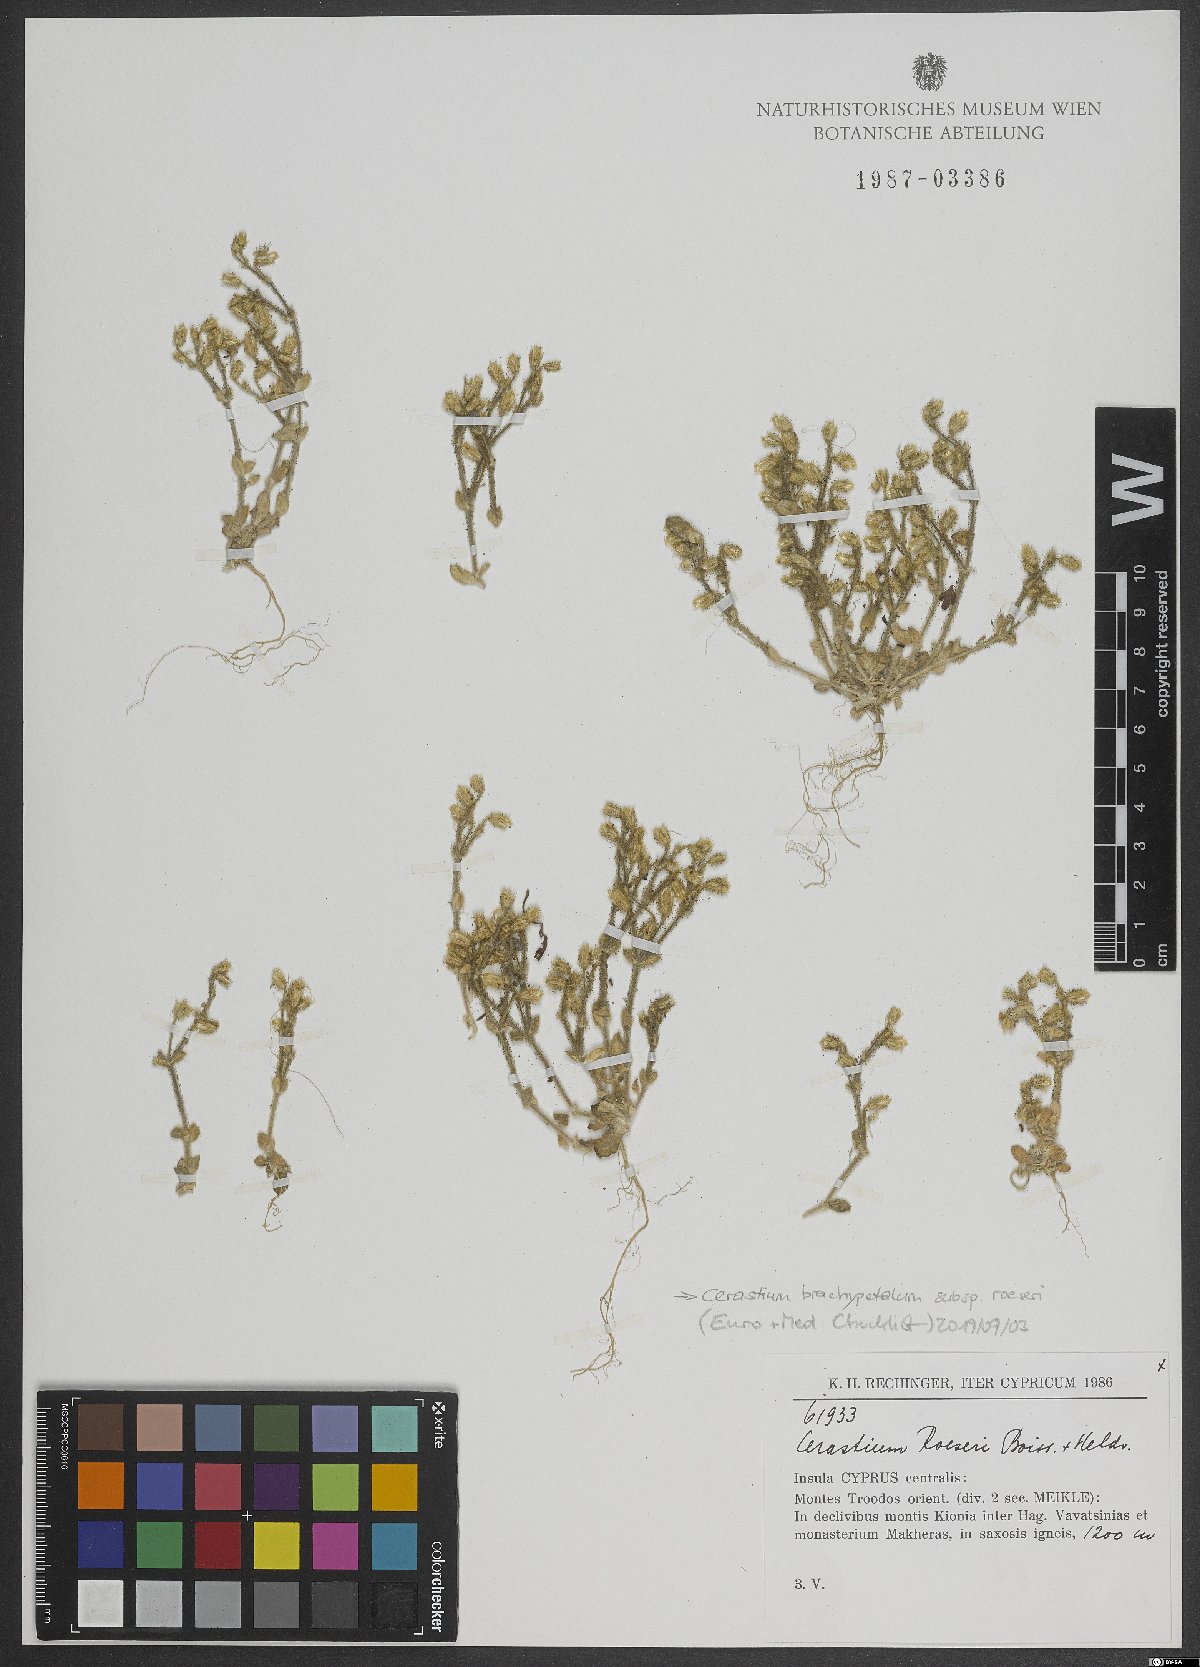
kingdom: Plantae
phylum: Tracheophyta
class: Magnoliopsida
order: Caryophyllales
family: Caryophyllaceae
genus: Cerastium
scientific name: Cerastium brachypetalum
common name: Grey mouse-ear
